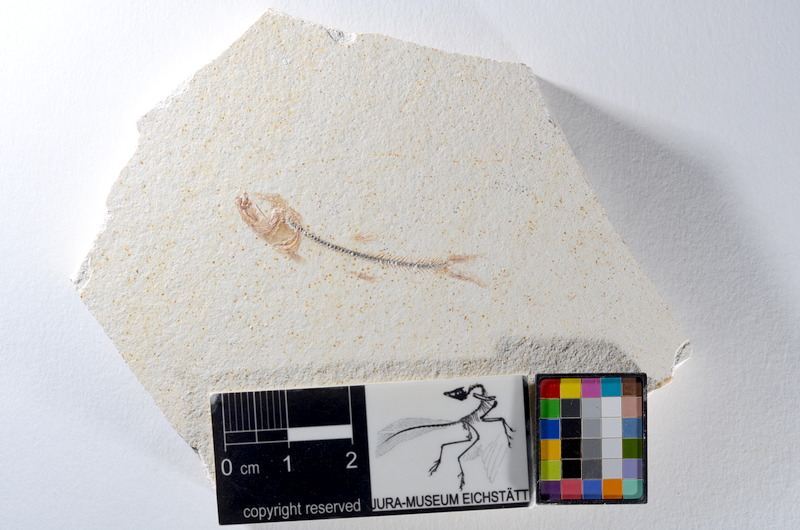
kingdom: Animalia
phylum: Chordata
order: Salmoniformes
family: Orthogonikleithridae
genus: Orthogonikleithrus
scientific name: Orthogonikleithrus hoelli
